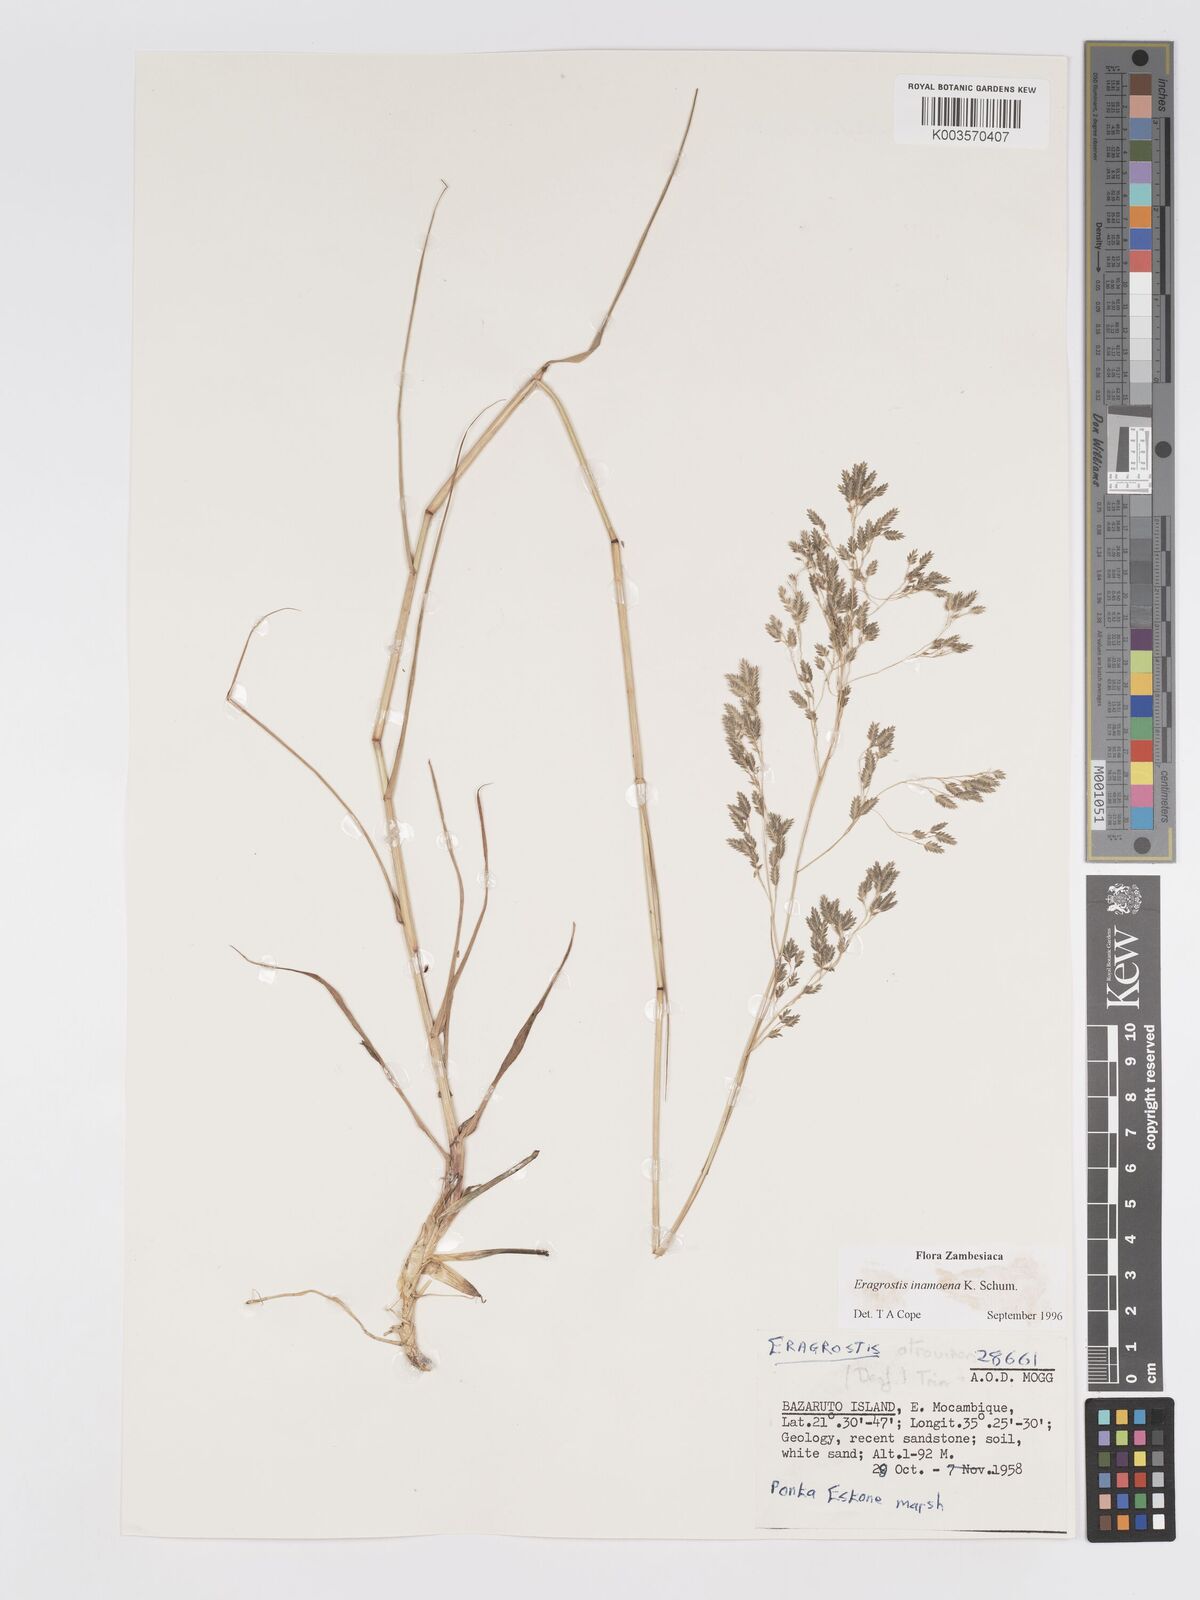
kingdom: Plantae
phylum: Tracheophyta
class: Liliopsida
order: Poales
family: Poaceae
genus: Eragrostis
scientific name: Eragrostis inamoena
